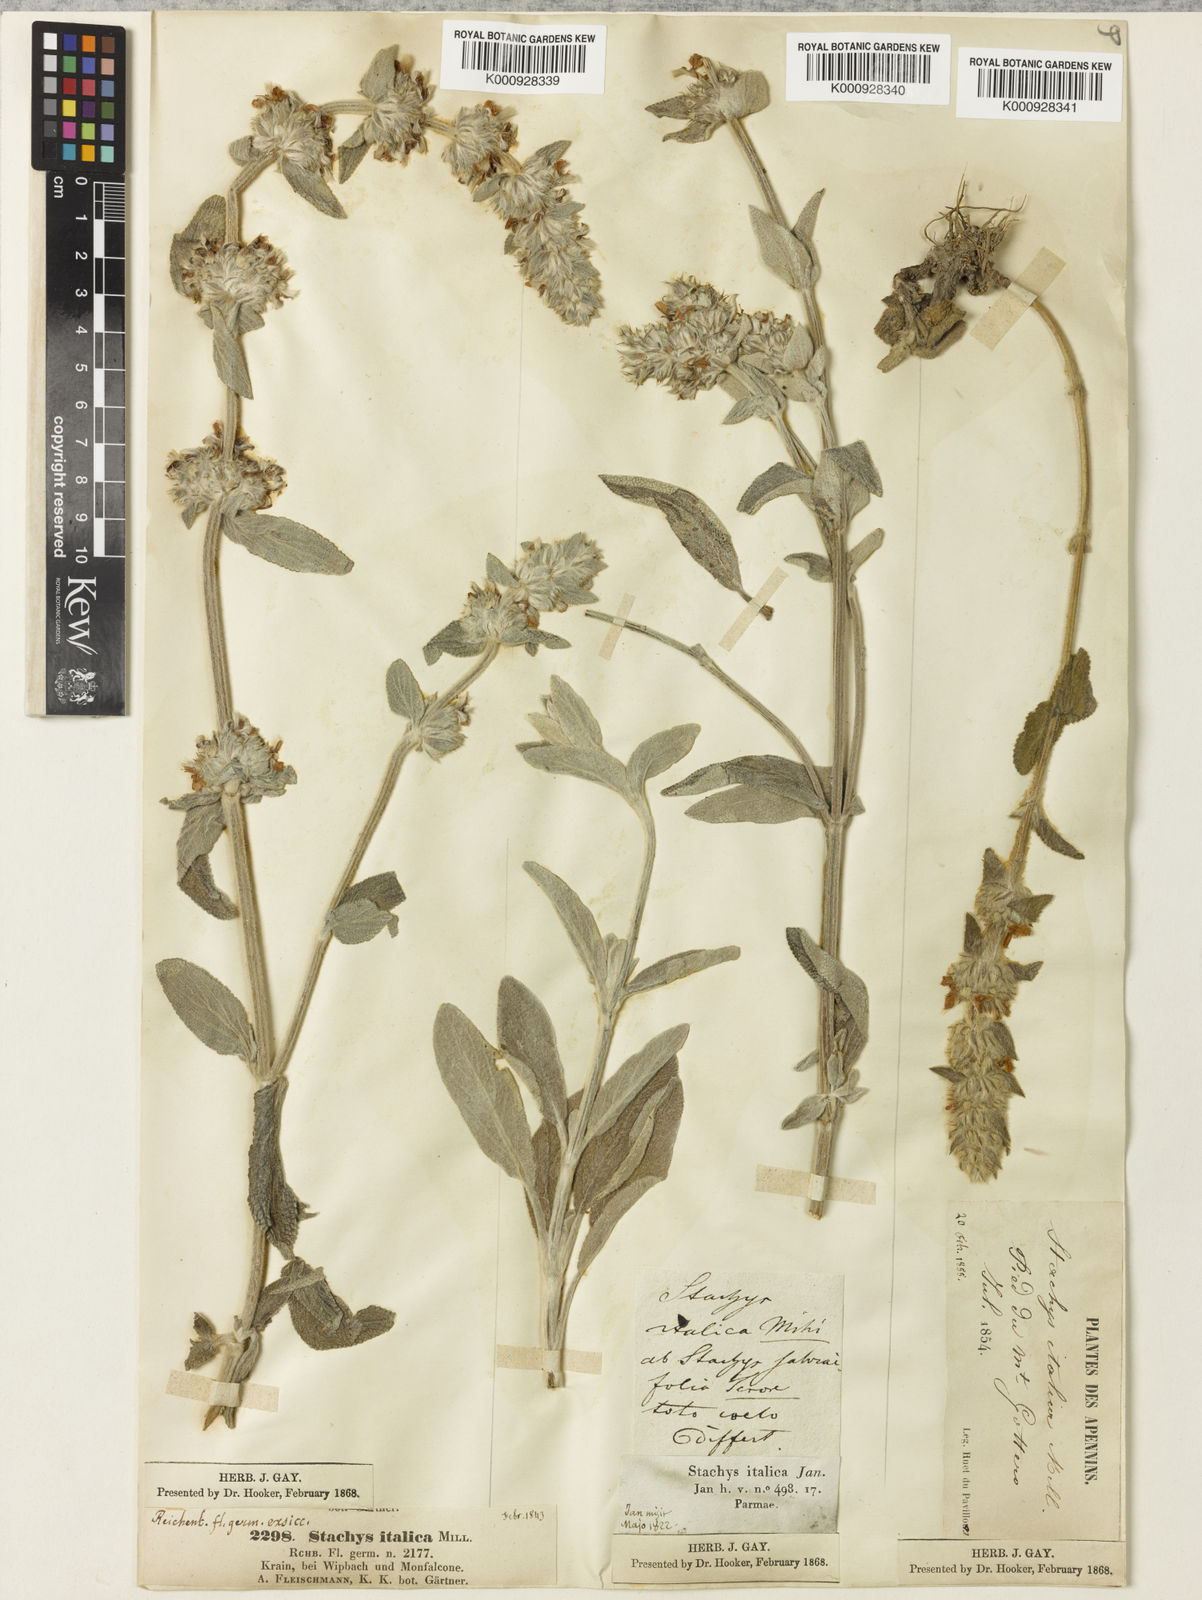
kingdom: Plantae
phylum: Tracheophyta
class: Magnoliopsida
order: Lamiales
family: Lamiaceae
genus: Stachys
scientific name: Stachys cretica
